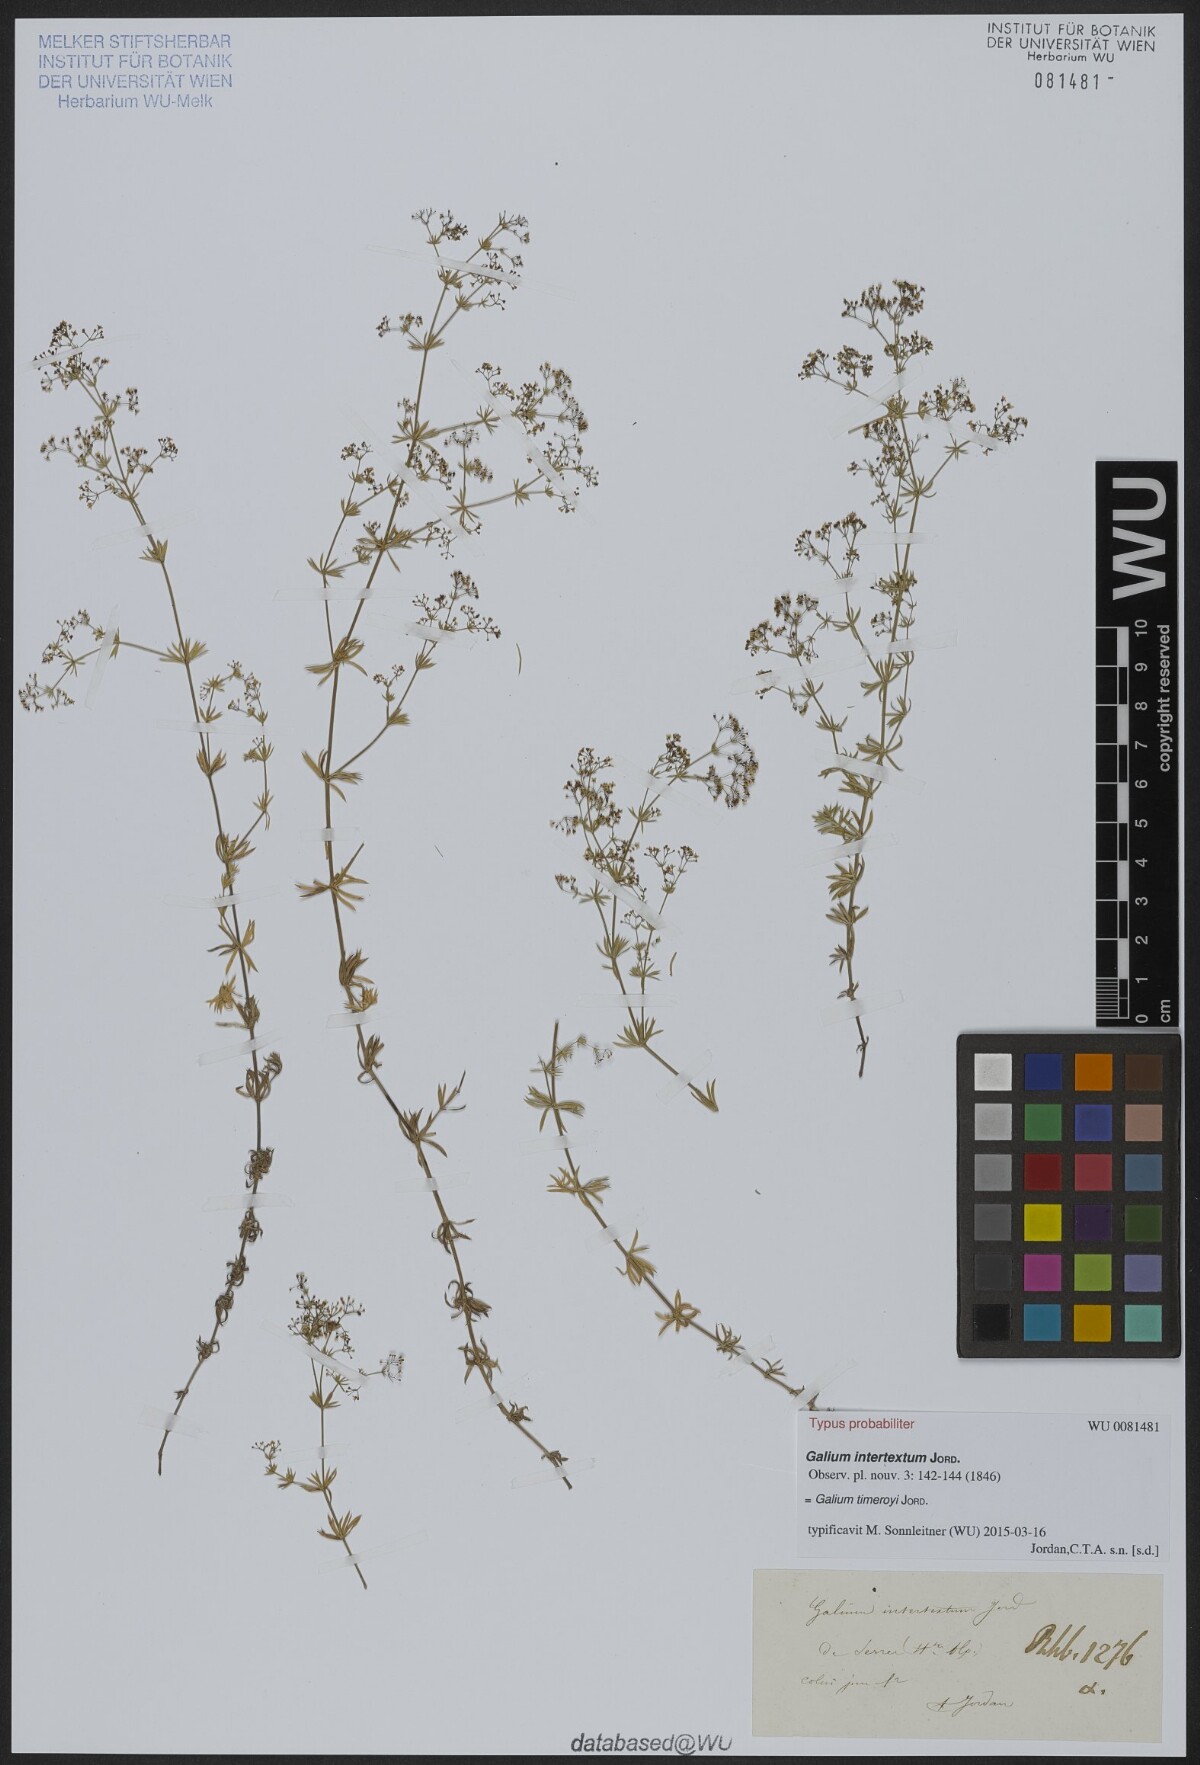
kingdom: Plantae
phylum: Tracheophyta
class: Magnoliopsida
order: Gentianales
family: Rubiaceae
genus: Galium
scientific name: Galium timeroyi
